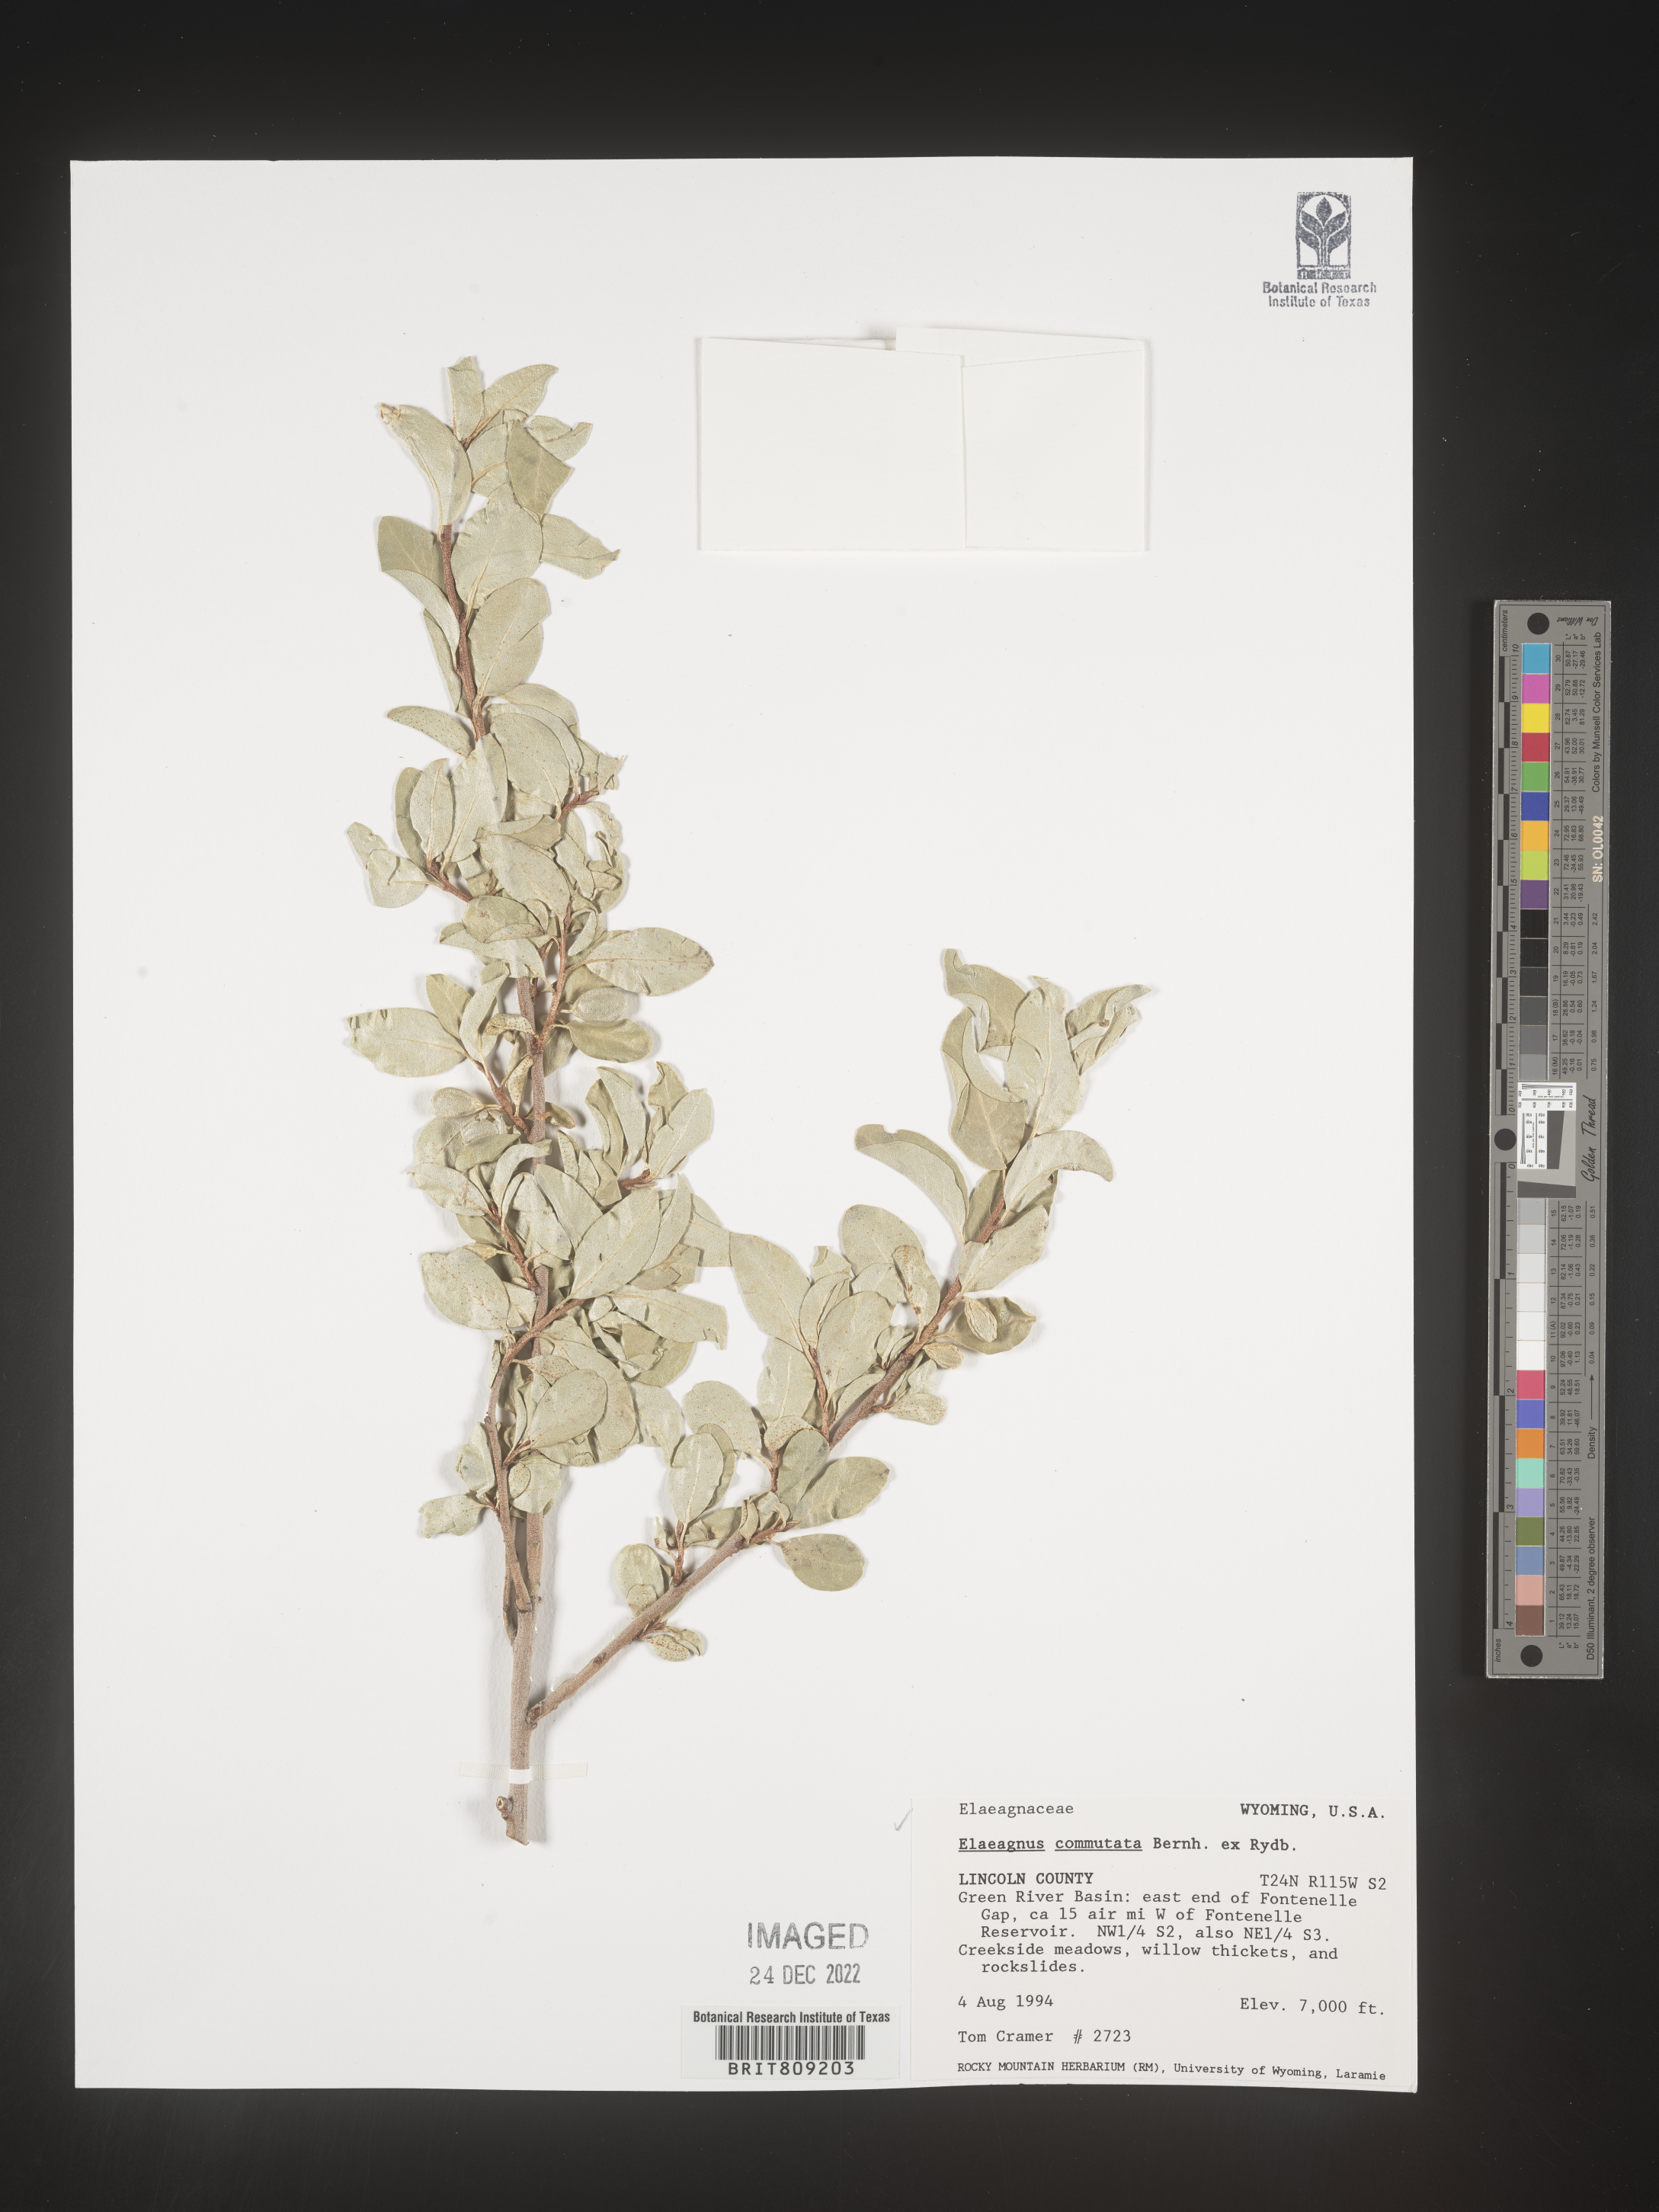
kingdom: Plantae
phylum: Tracheophyta
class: Magnoliopsida
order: Rosales
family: Elaeagnaceae
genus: Elaeagnus
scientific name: Elaeagnus
